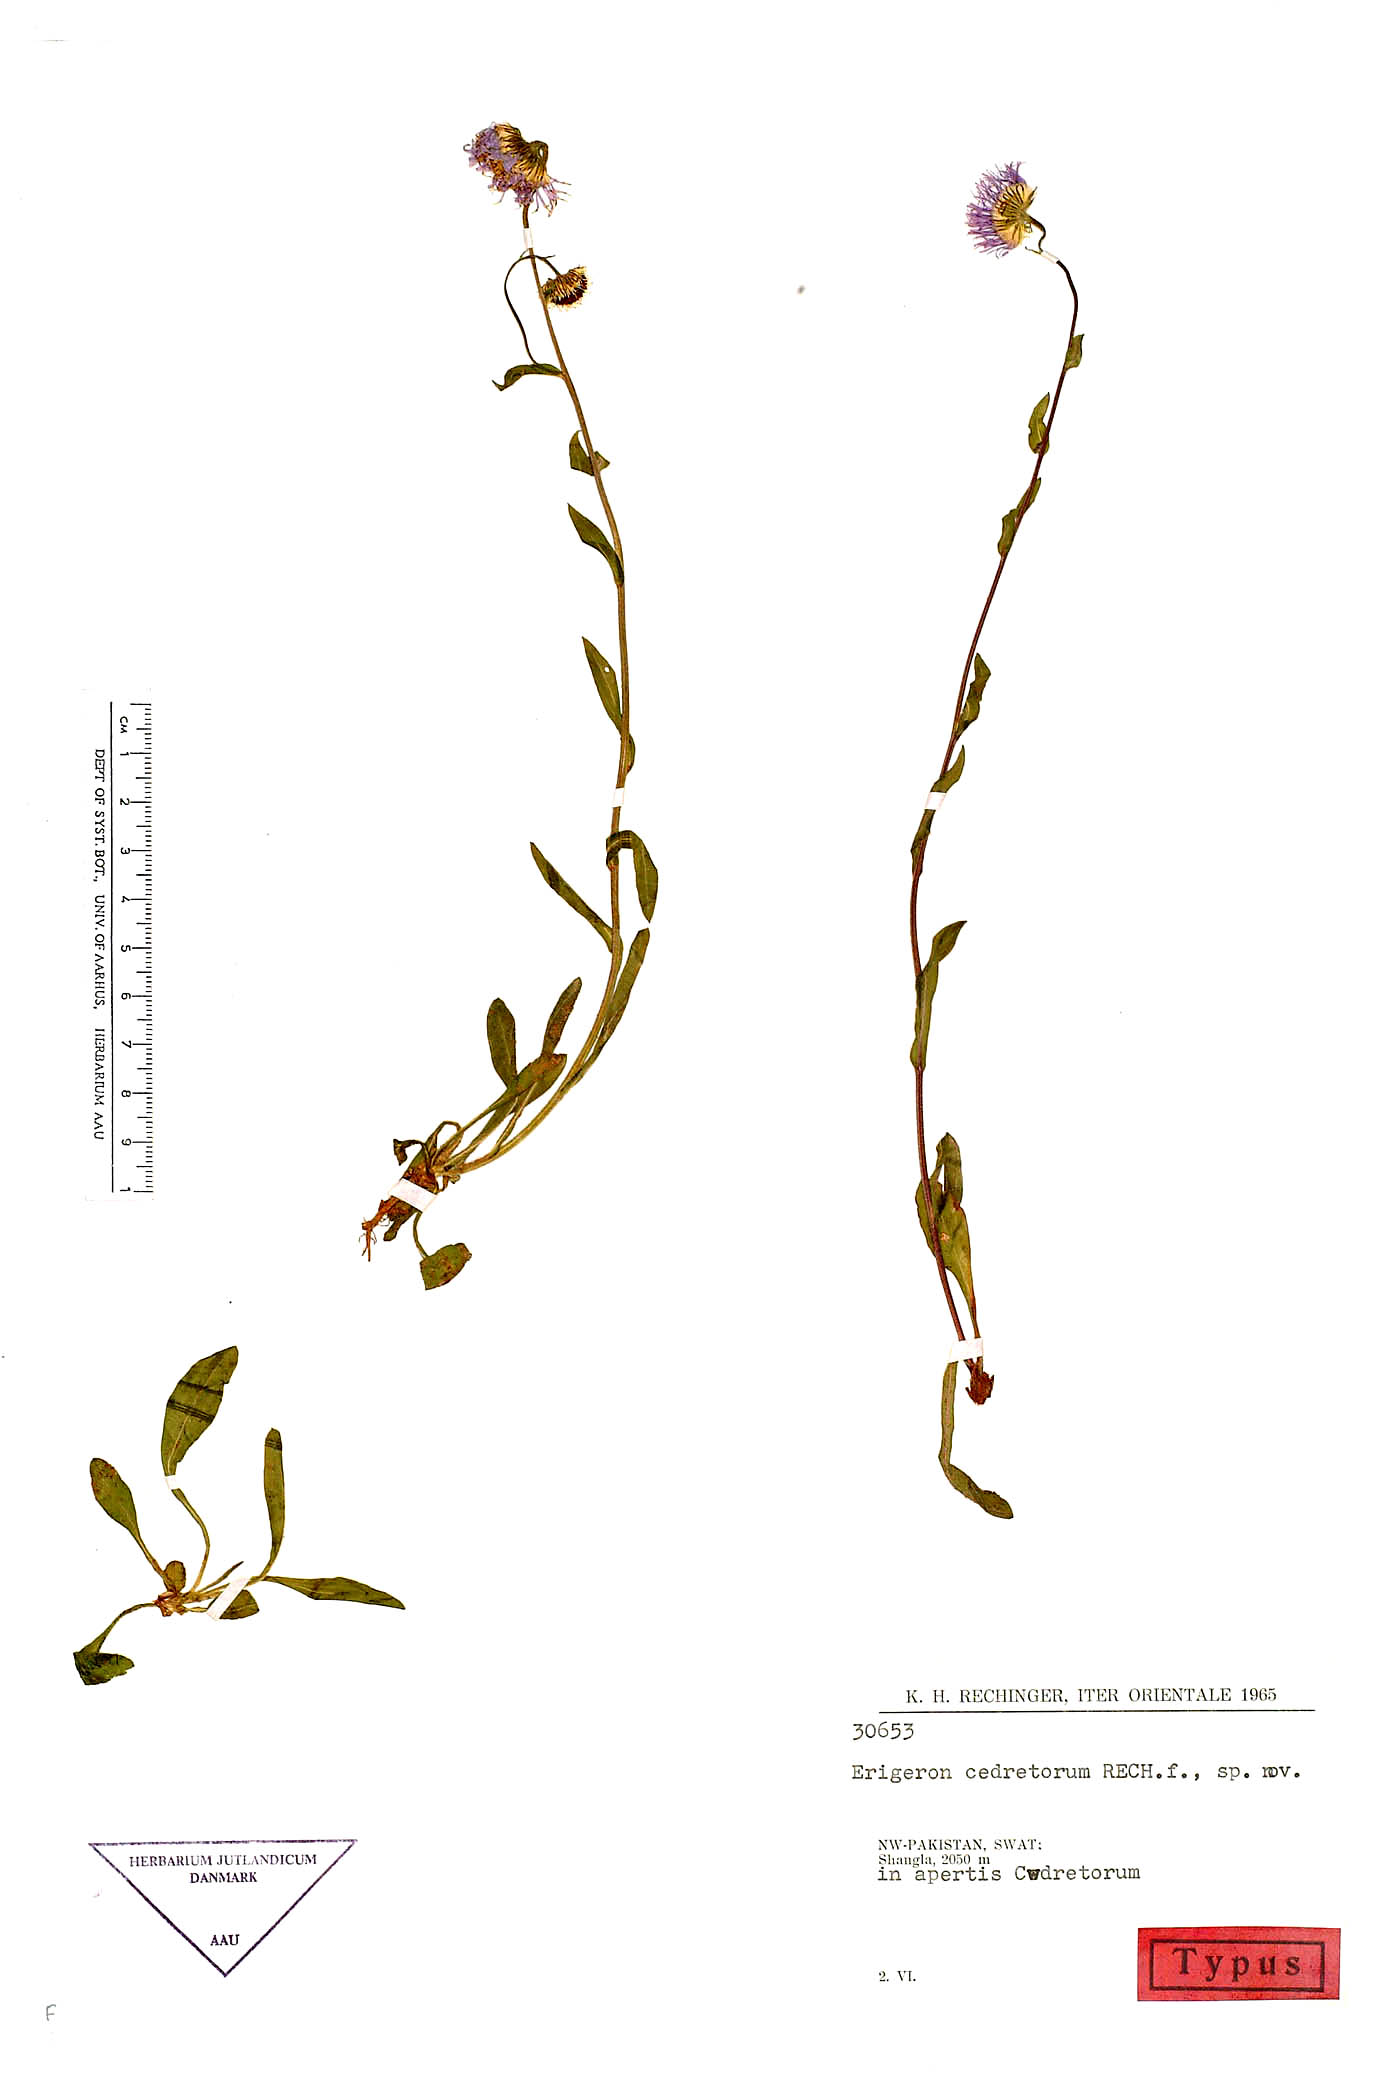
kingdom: Plantae
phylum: Tracheophyta
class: Magnoliopsida
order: Asterales
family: Asteraceae
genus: Erigeron
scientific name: Erigeron cedretorum
